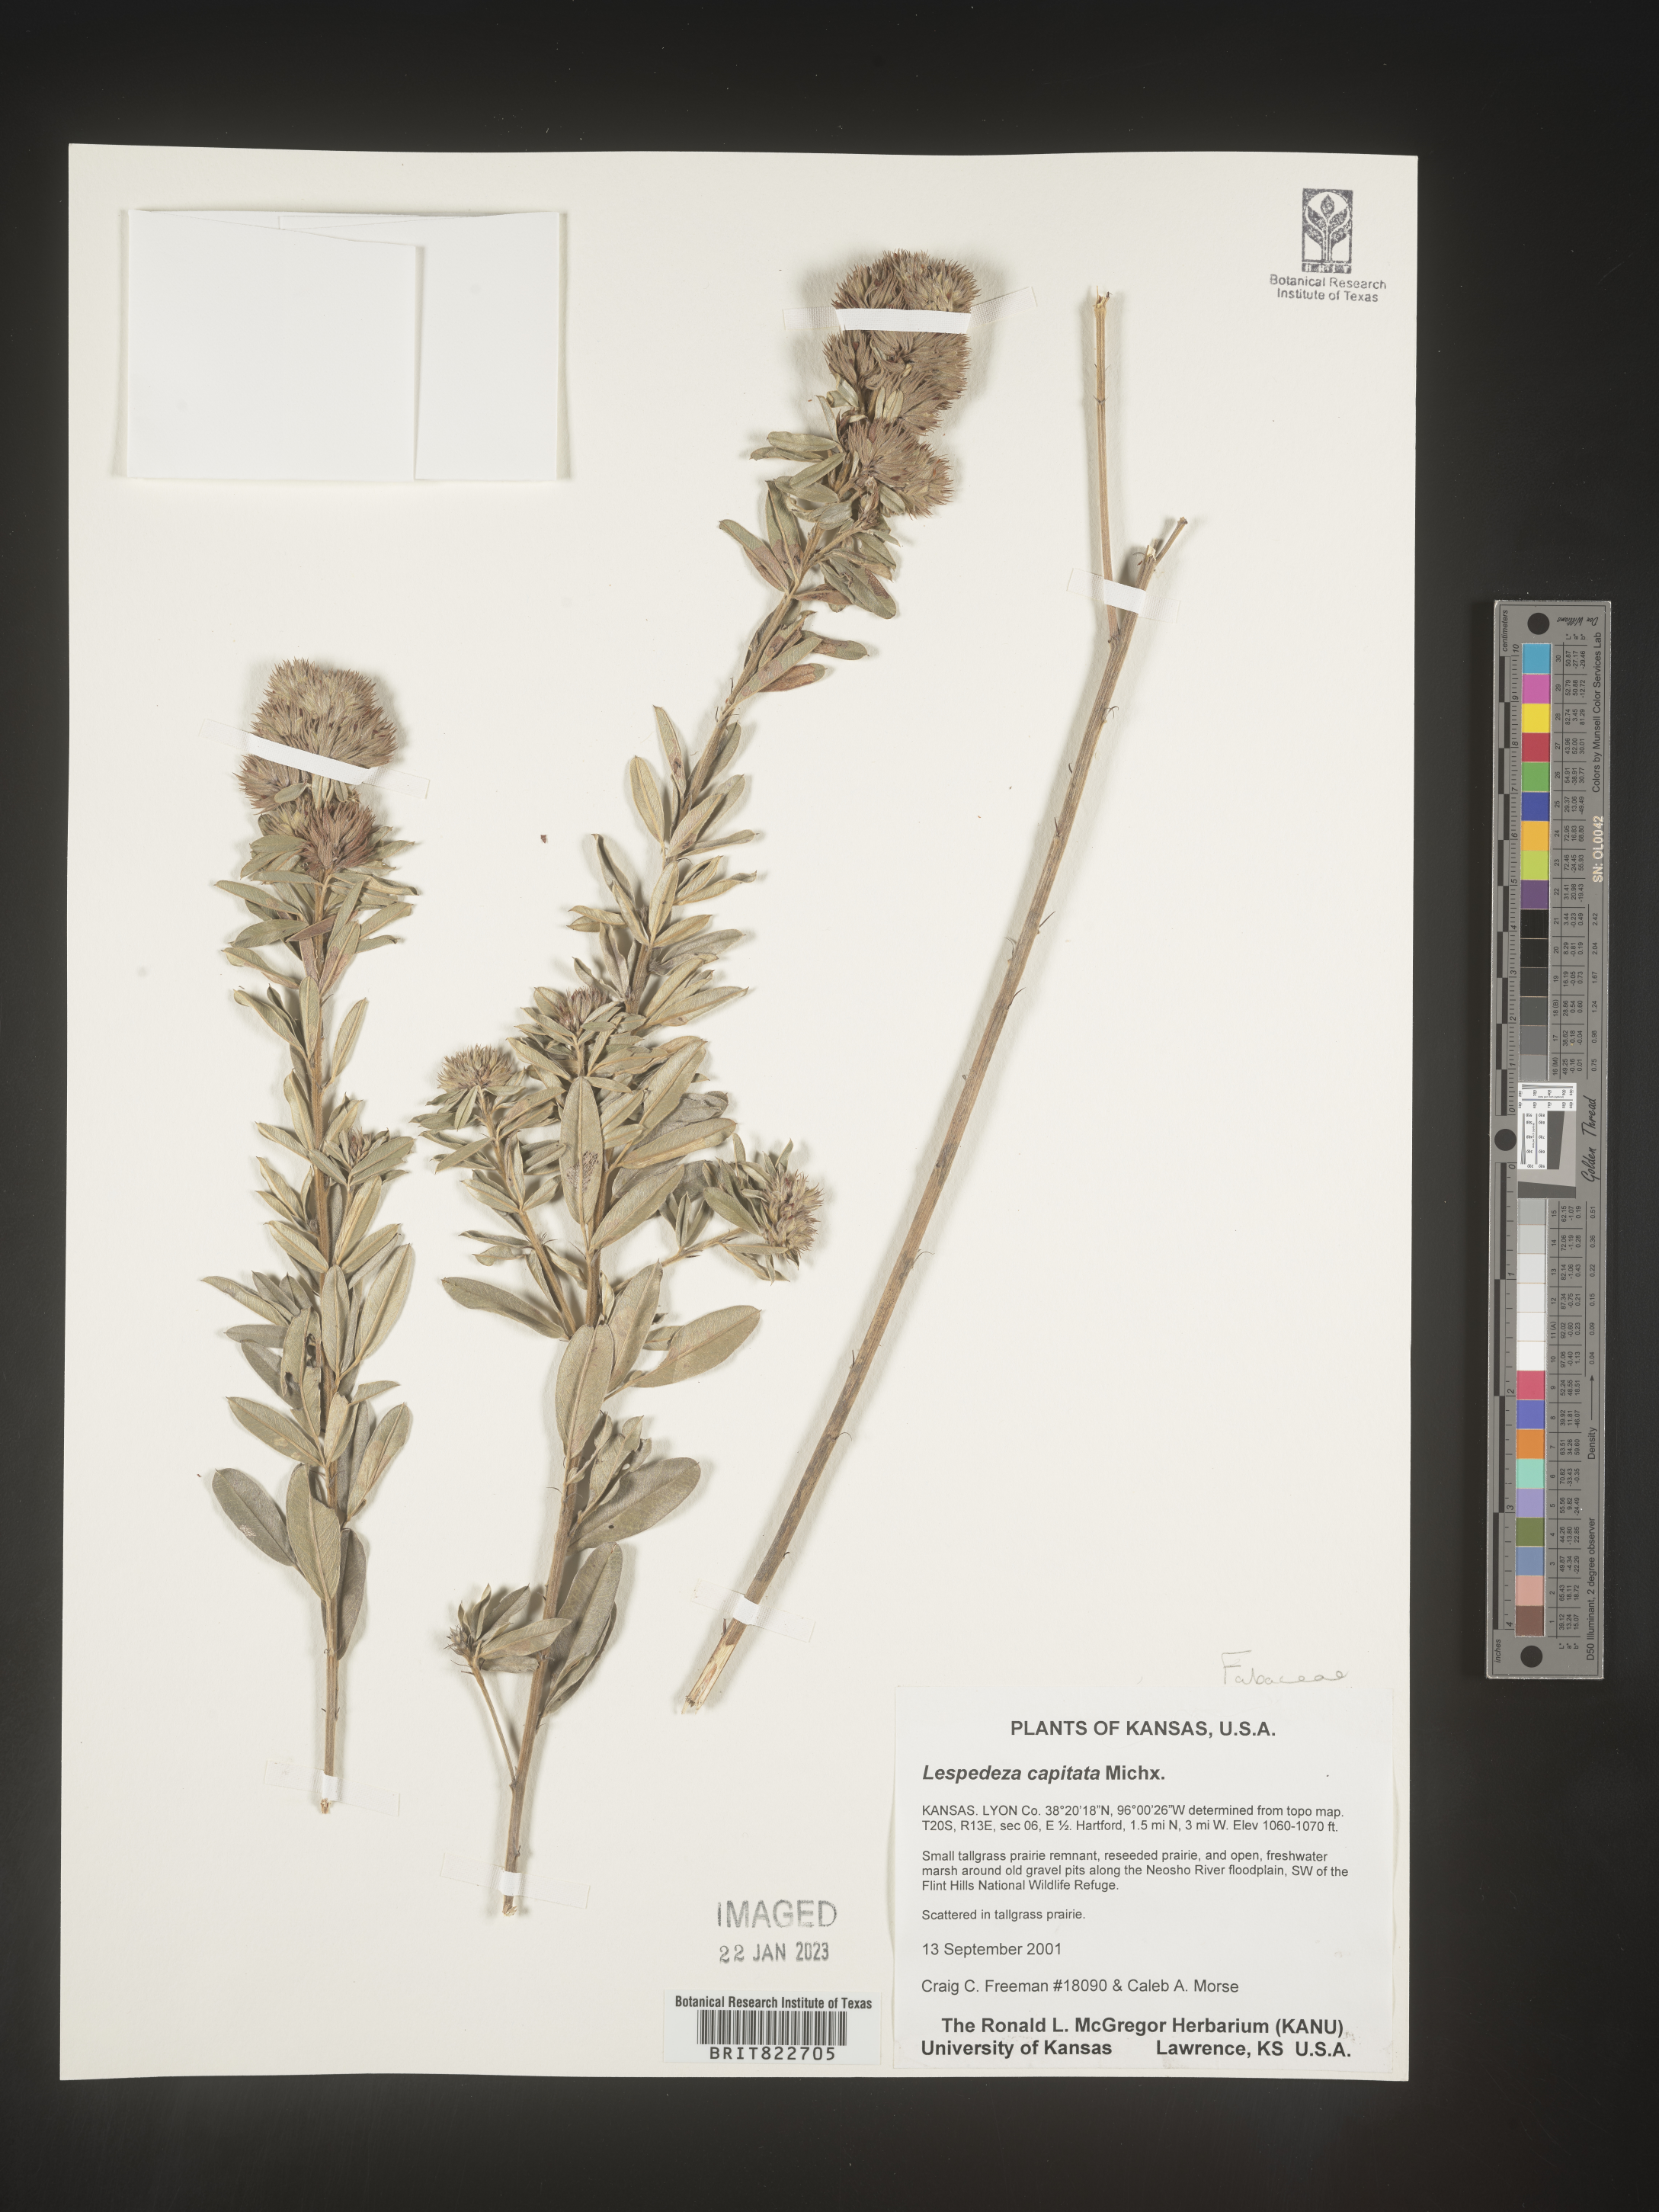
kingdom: Plantae
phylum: Tracheophyta
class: Magnoliopsida
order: Fabales
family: Fabaceae
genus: Lespedeza
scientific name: Lespedeza capitata
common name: Dusty clover
